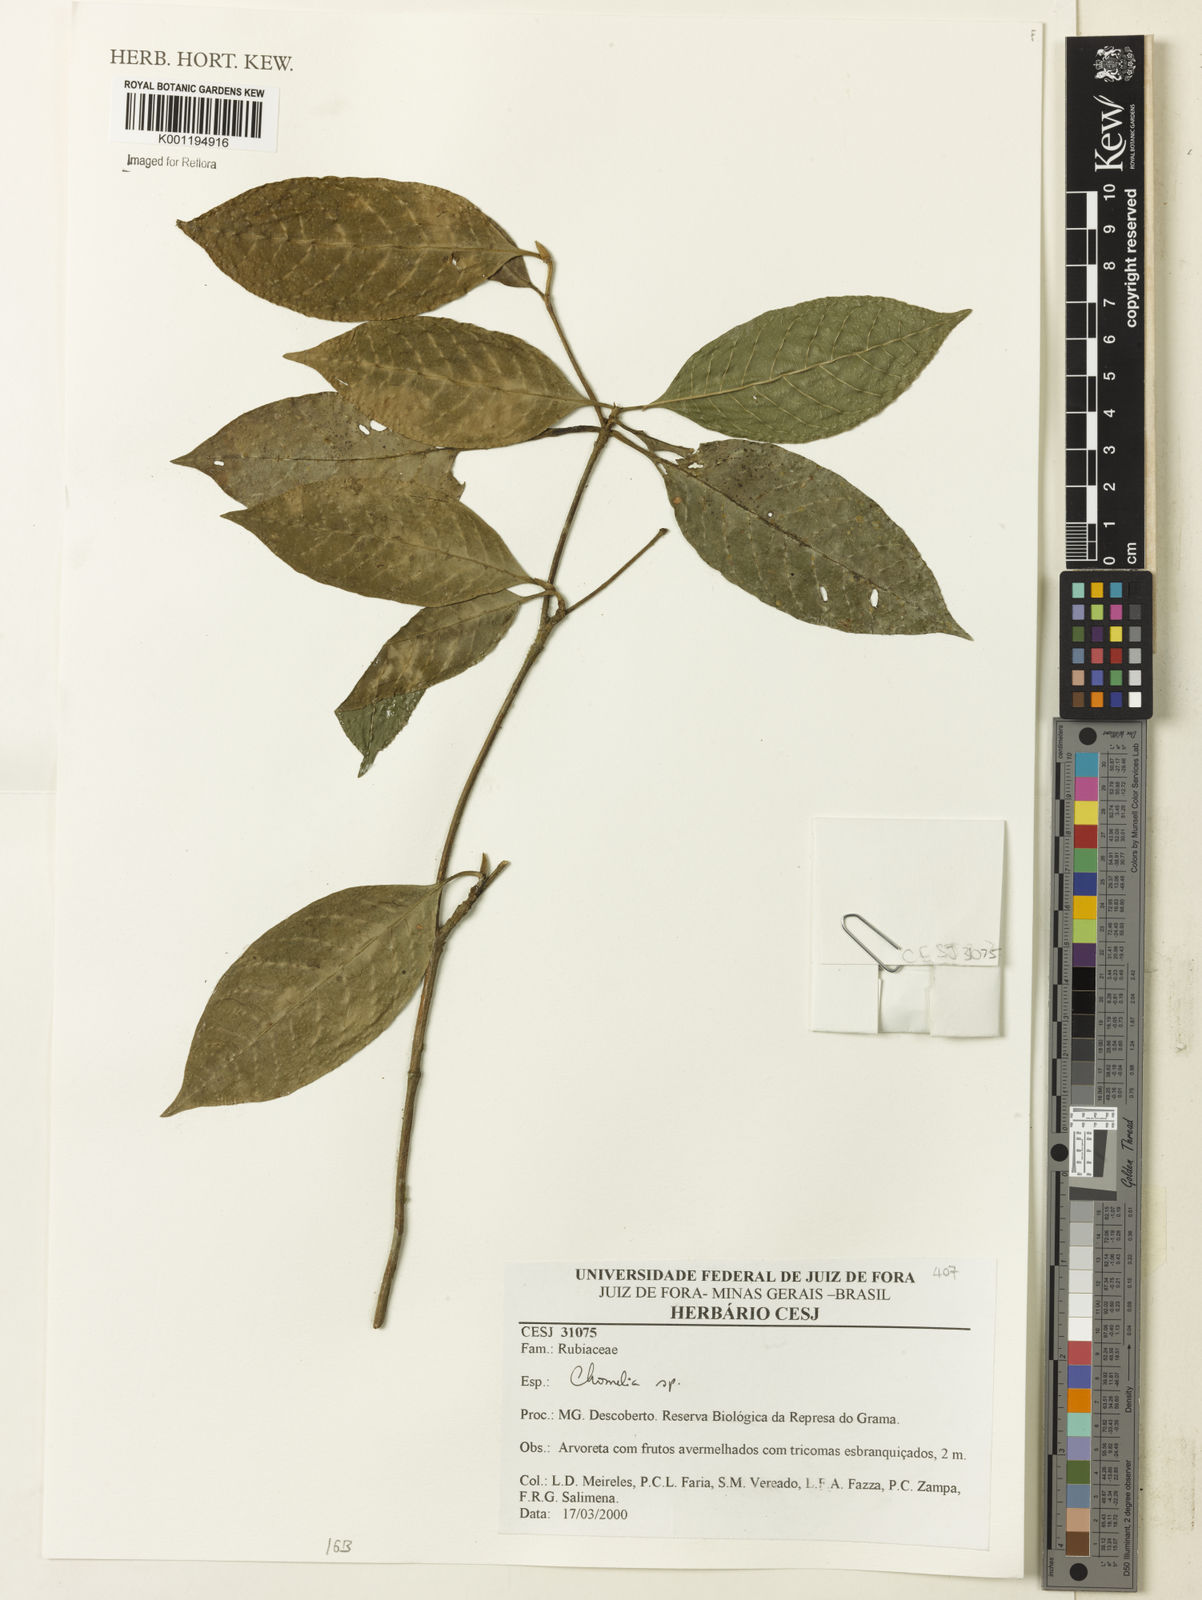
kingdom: Plantae
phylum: Tracheophyta
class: Magnoliopsida
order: Gentianales
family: Rubiaceae
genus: Chomelia
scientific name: Chomelia
